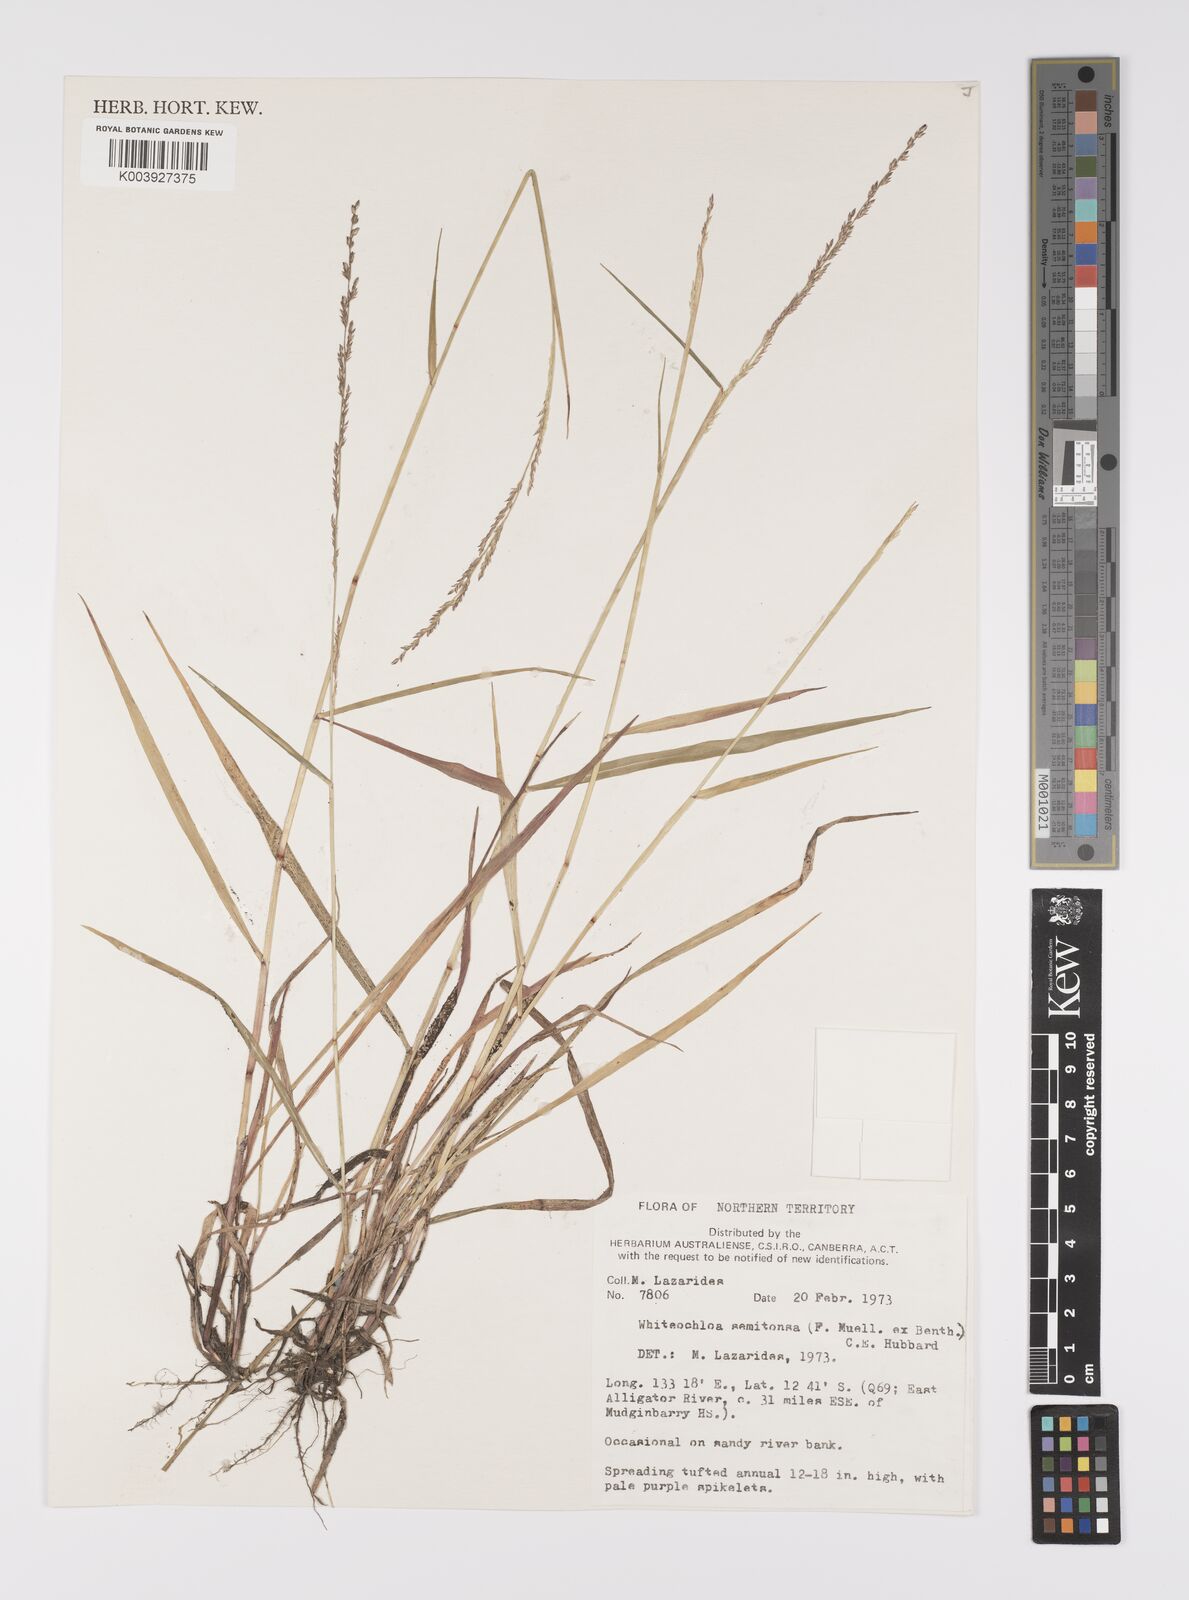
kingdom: Plantae
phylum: Tracheophyta
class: Liliopsida
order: Poales
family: Poaceae
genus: Whiteochloa
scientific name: Whiteochloa semitonsa
